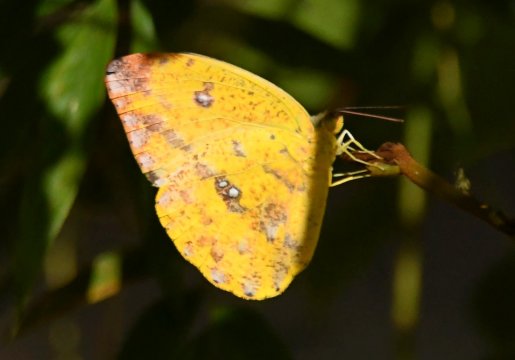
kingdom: Animalia
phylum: Arthropoda
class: Insecta
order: Lepidoptera
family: Pieridae
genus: Phoebis
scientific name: Phoebis argante
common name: Apricot Sulphur
